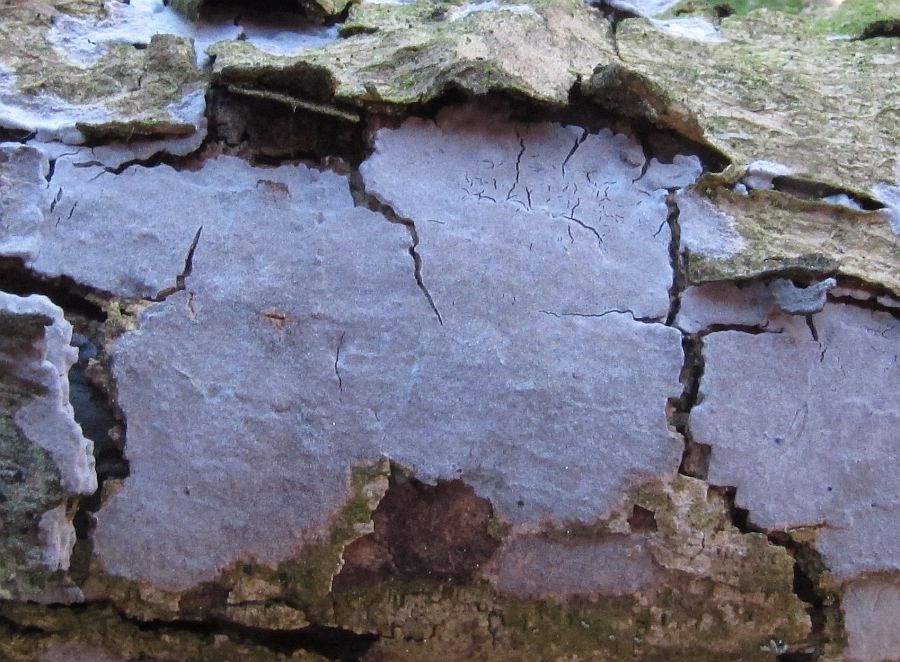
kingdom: Fungi
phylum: Basidiomycota
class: Agaricomycetes
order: Russulales
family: Peniophoraceae
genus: Peniophora
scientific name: Peniophora lycii
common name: grynet voksskind
